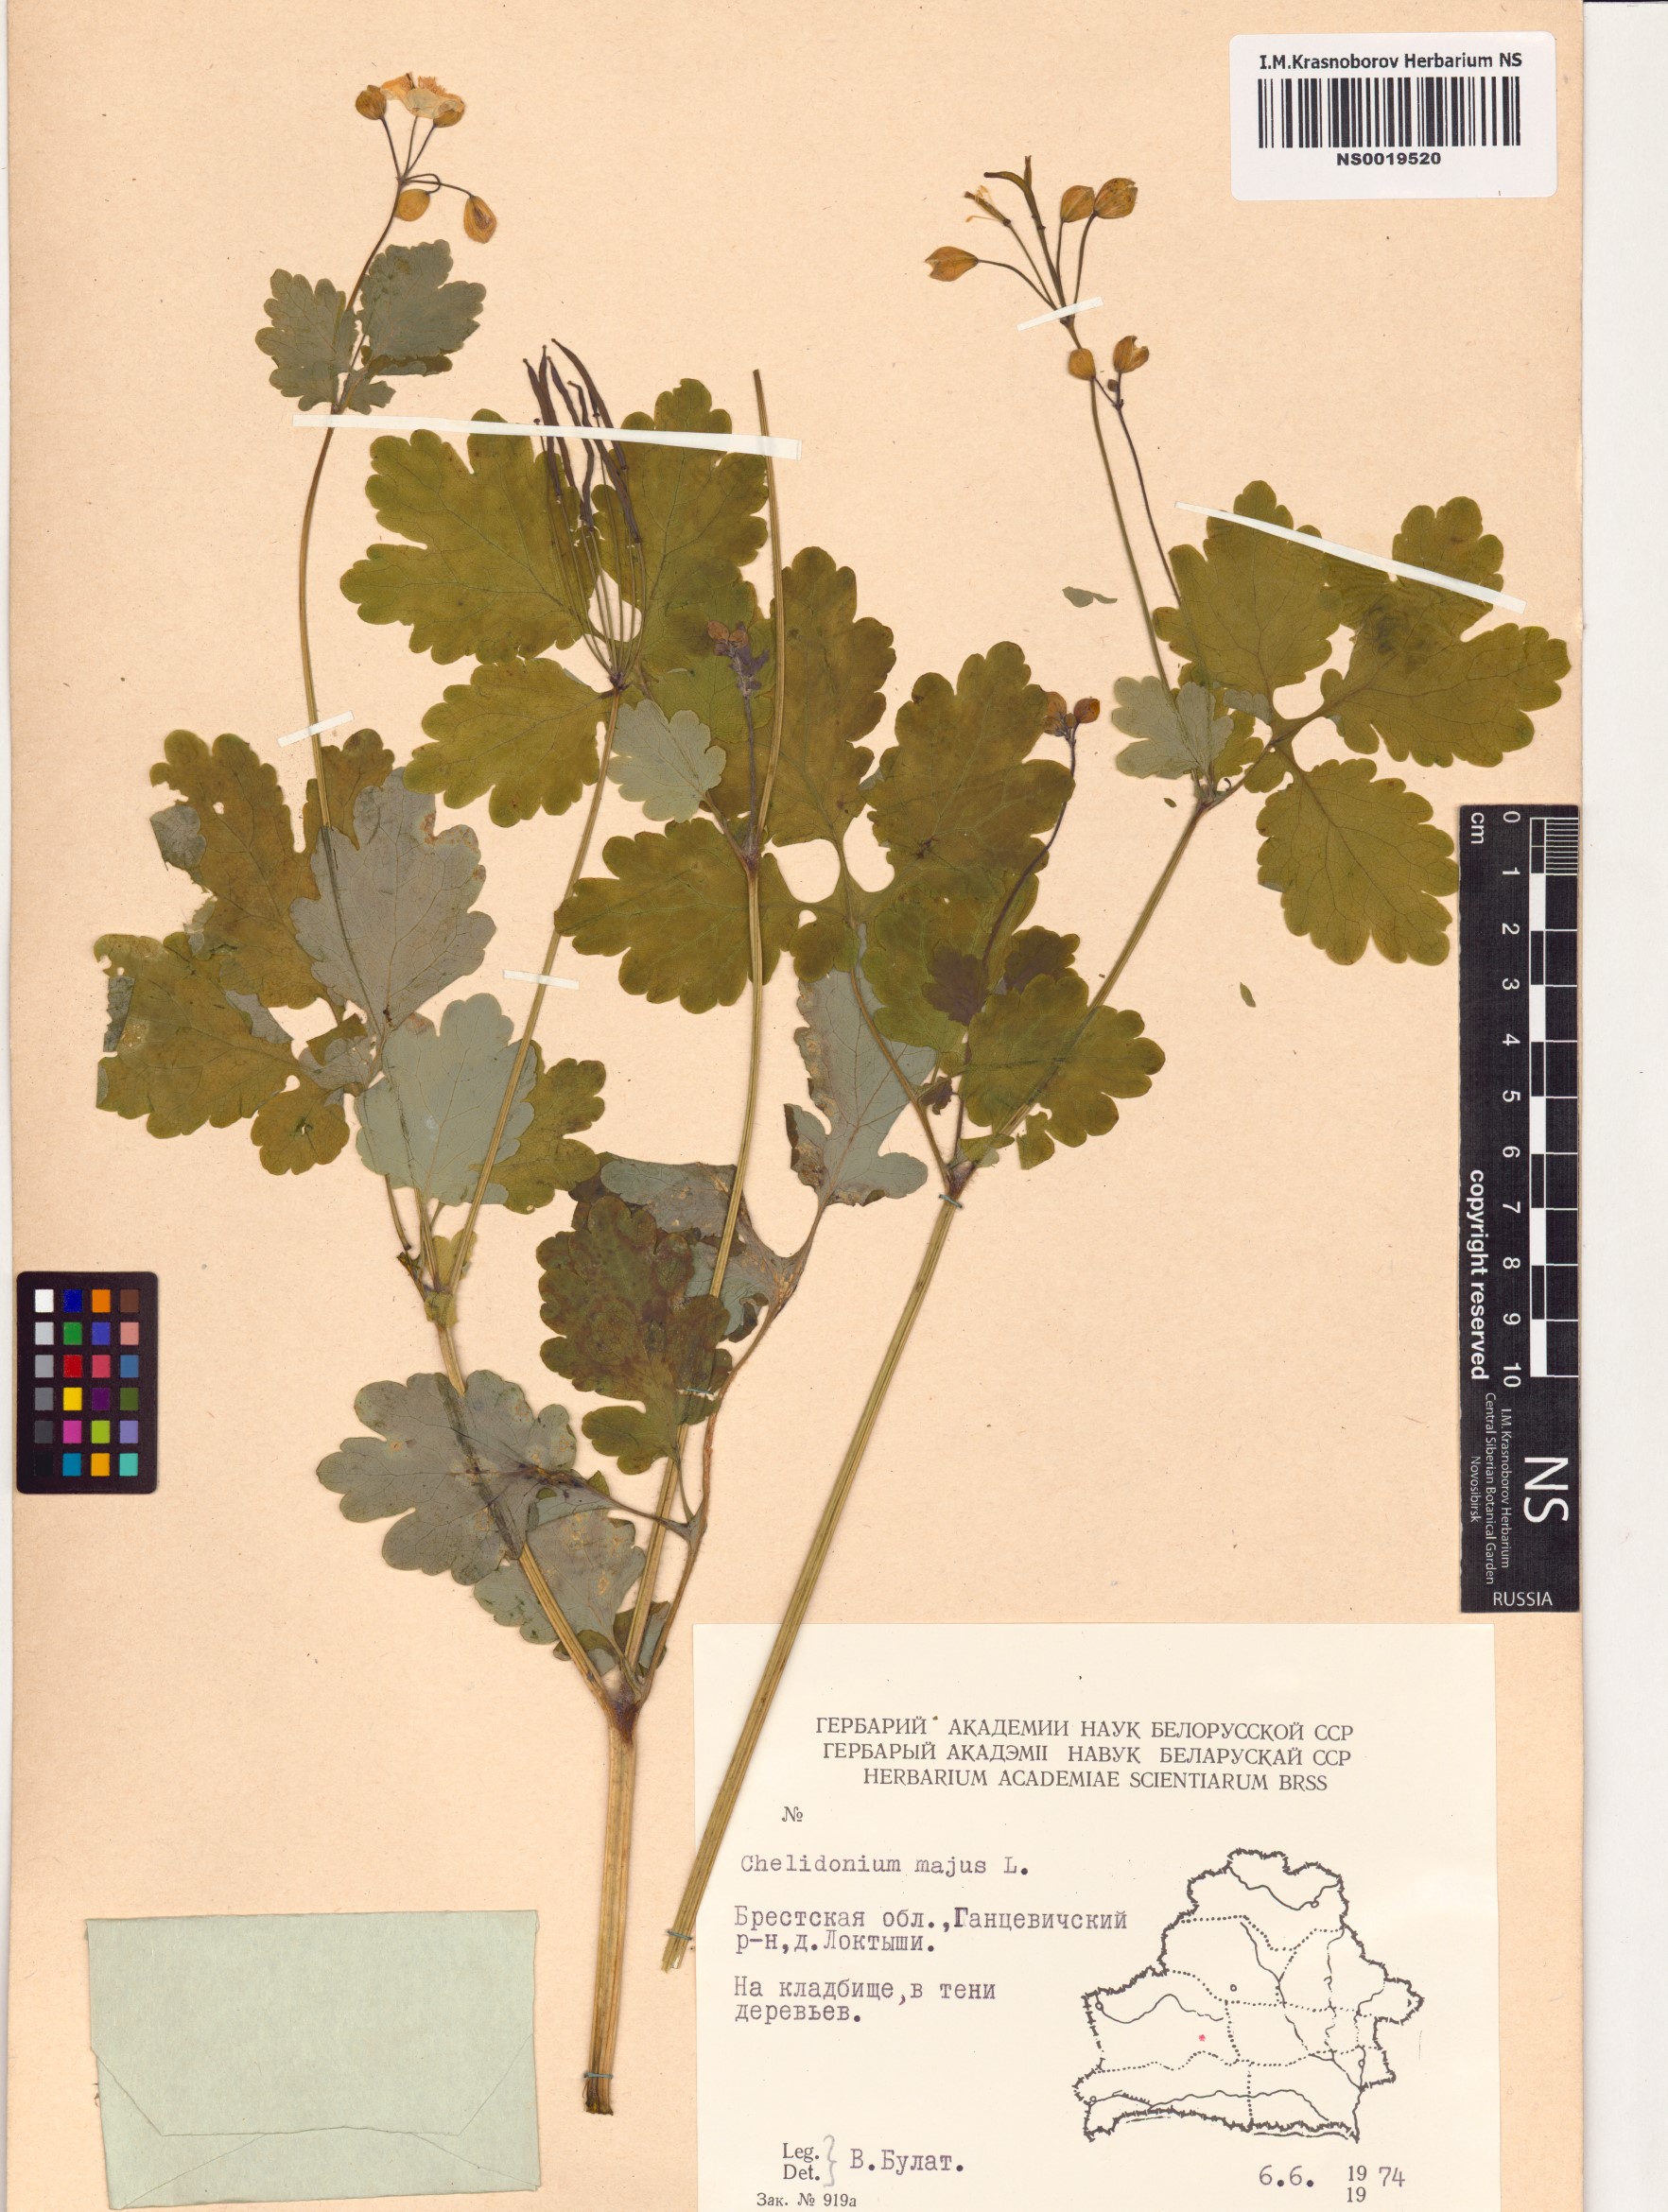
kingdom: Plantae
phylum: Tracheophyta
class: Magnoliopsida
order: Ranunculales
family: Papaveraceae
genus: Chelidonium
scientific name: Chelidonium majus
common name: Greater celandine
